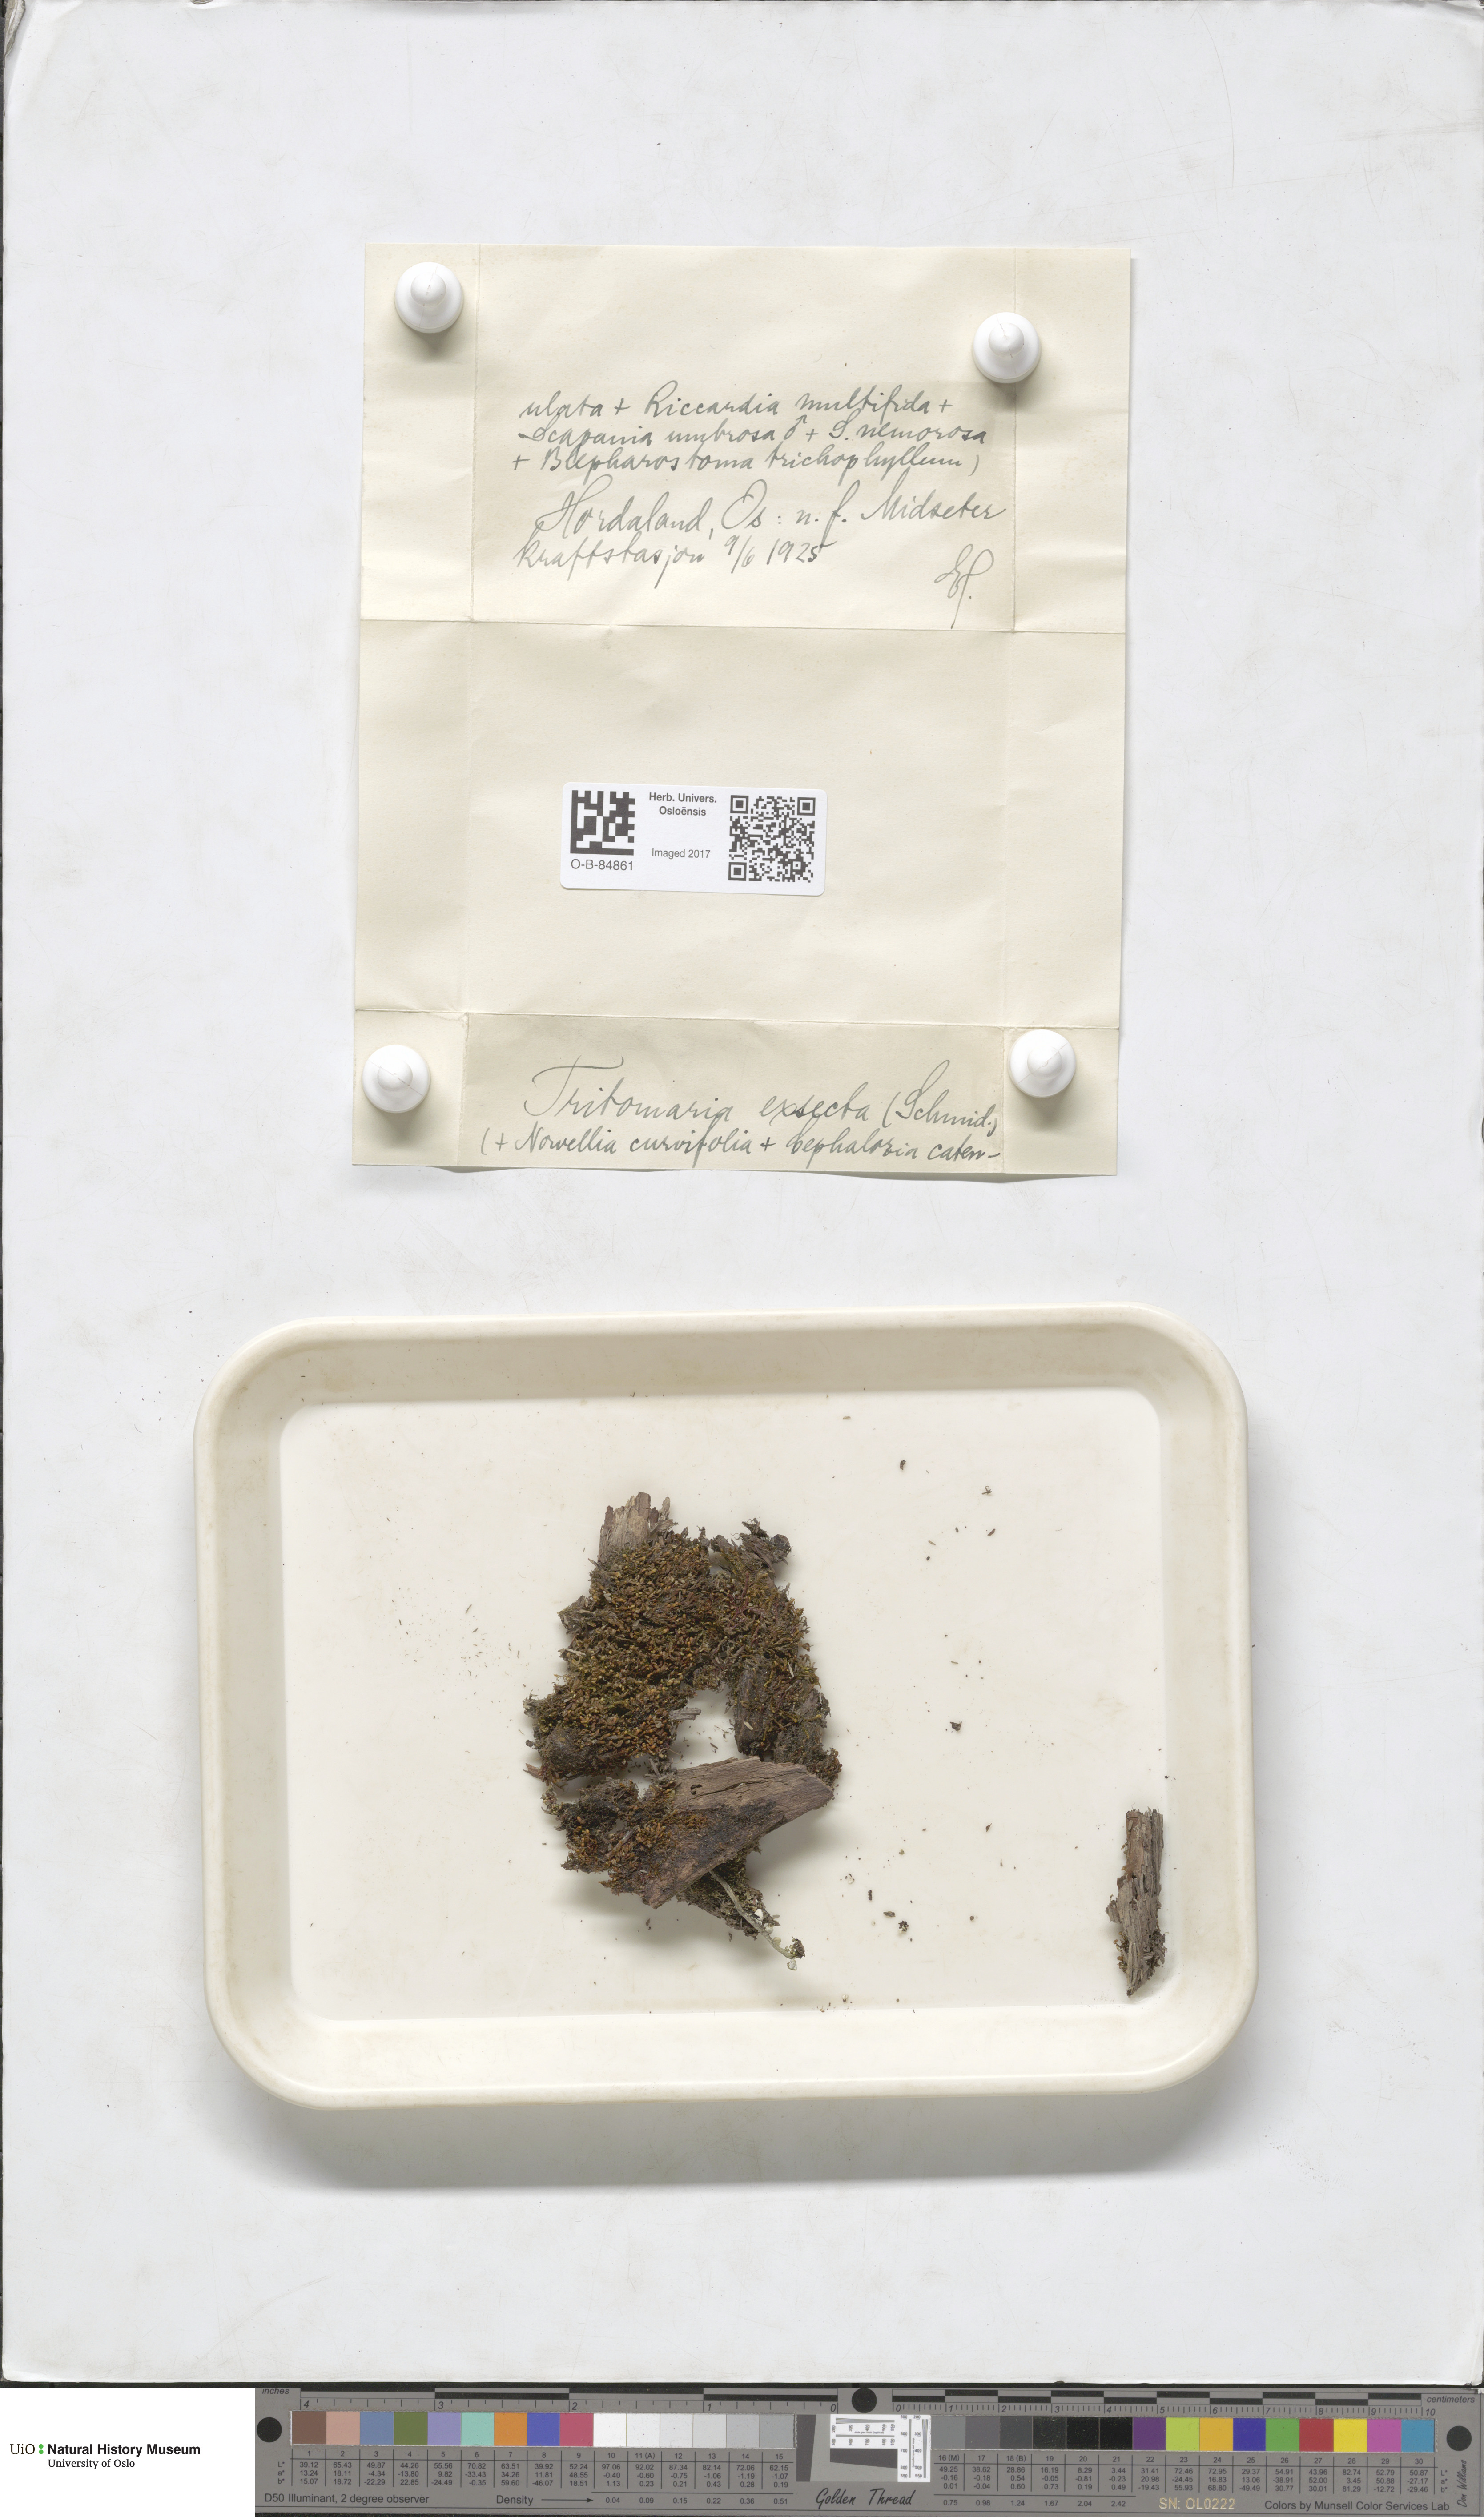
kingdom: Plantae
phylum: Marchantiophyta
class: Jungermanniopsida
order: Jungermanniales
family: Lophoziaceae
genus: Tritomaria
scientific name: Tritomaria exsecta
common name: Cut notchwort
